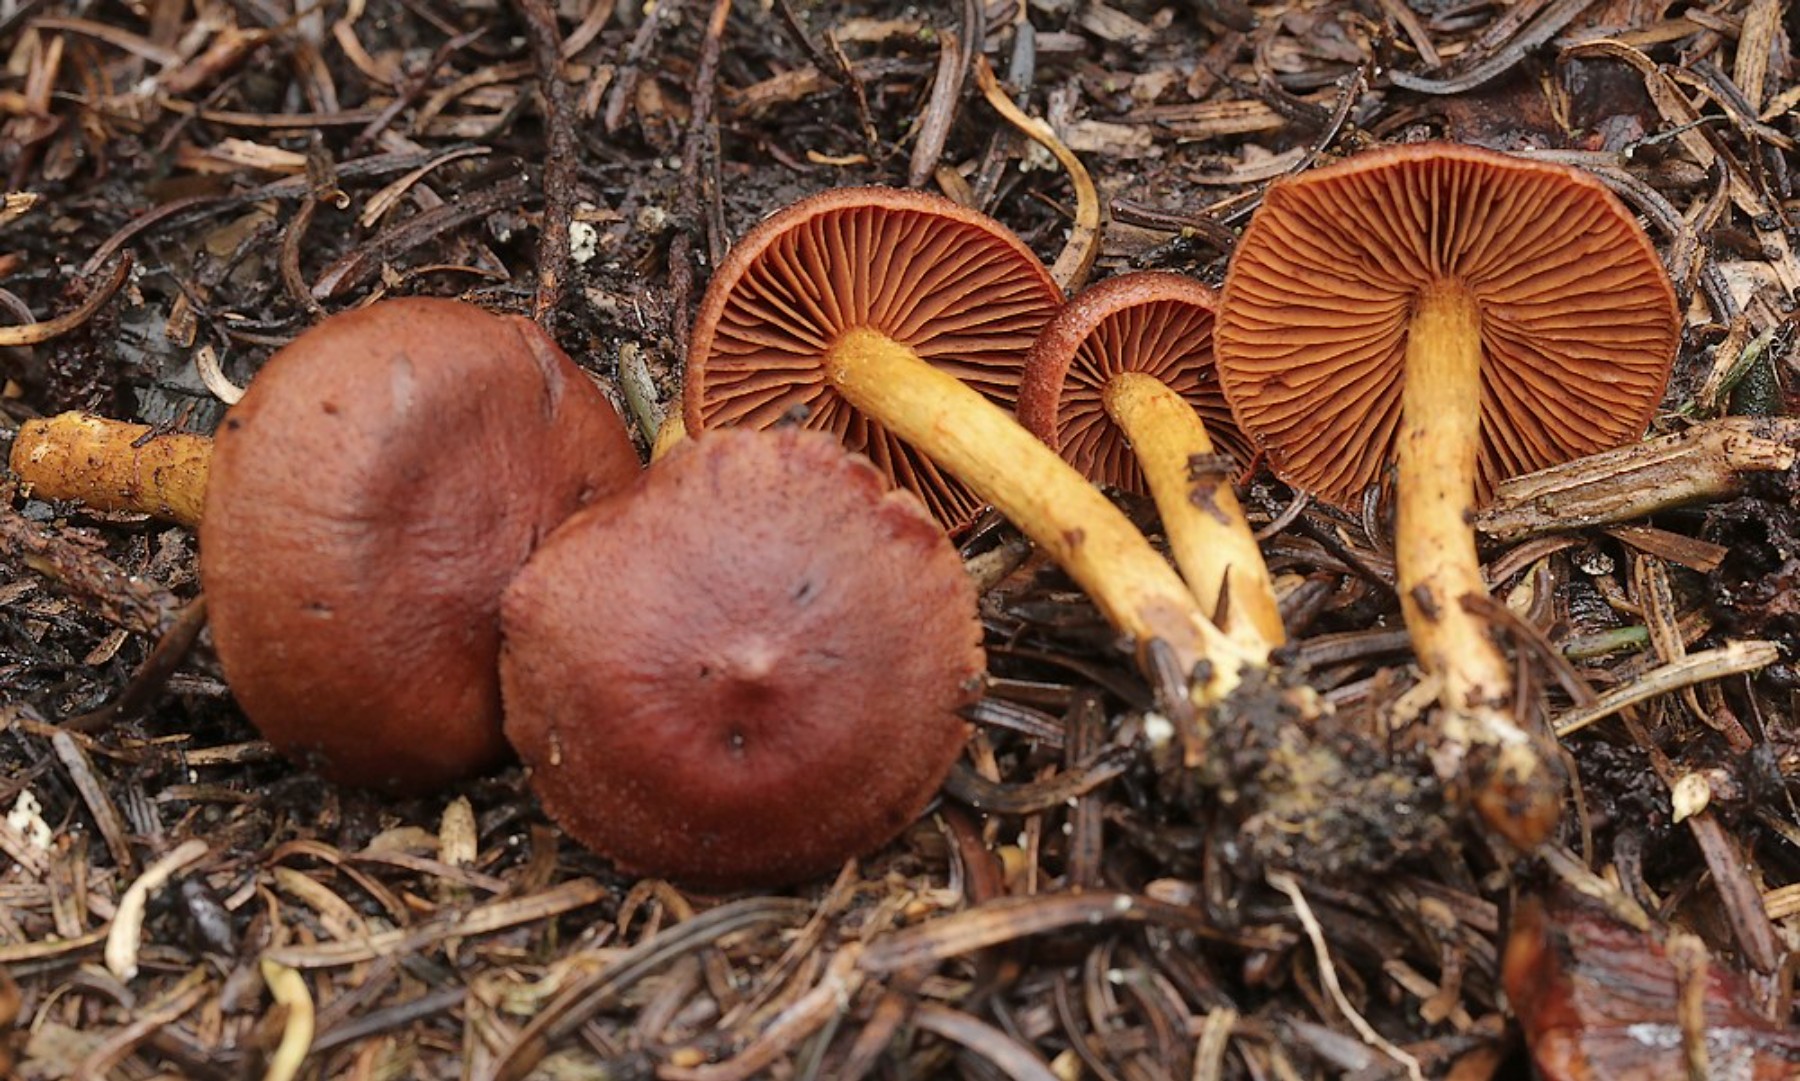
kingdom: Fungi
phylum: Basidiomycota
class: Agaricomycetes
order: Agaricales
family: Cortinariaceae
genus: Cortinarius
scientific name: Cortinarius
